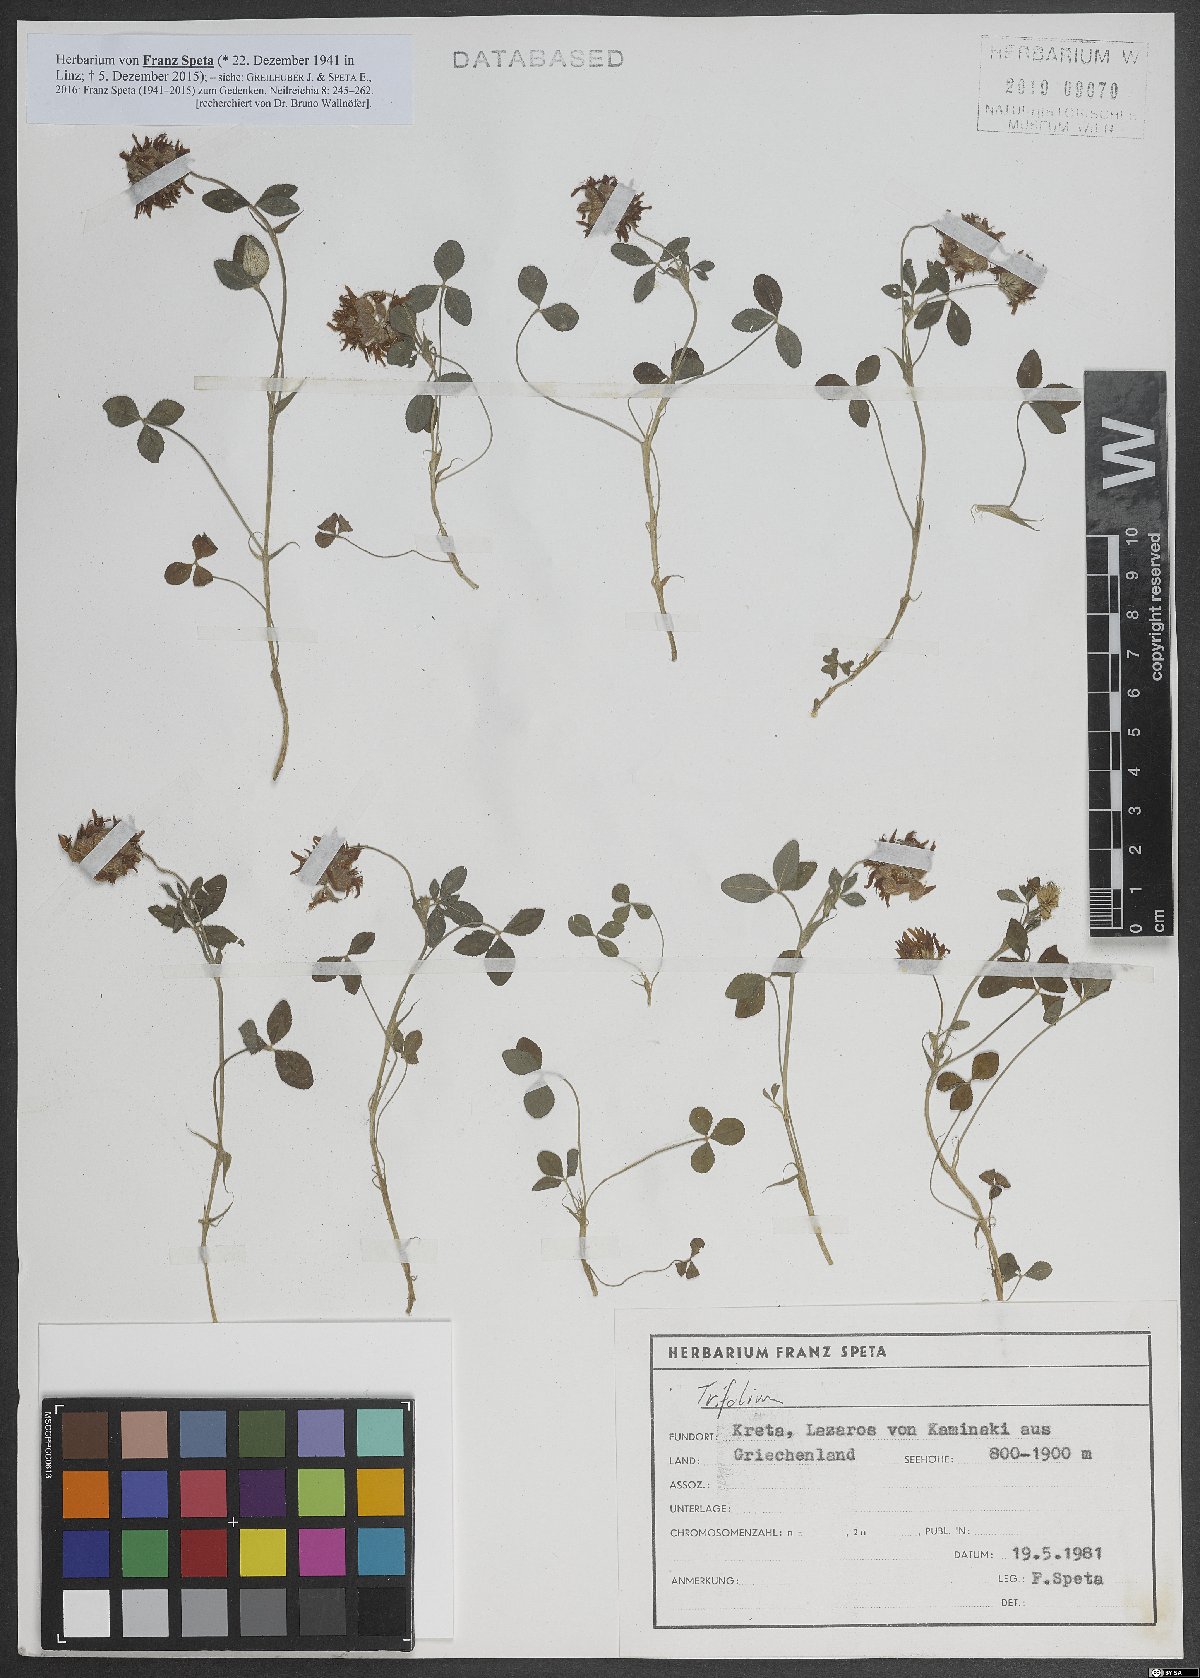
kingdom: Plantae
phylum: Tracheophyta
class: Magnoliopsida
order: Fabales
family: Fabaceae
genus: Trifolium
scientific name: Trifolium rechingeri
